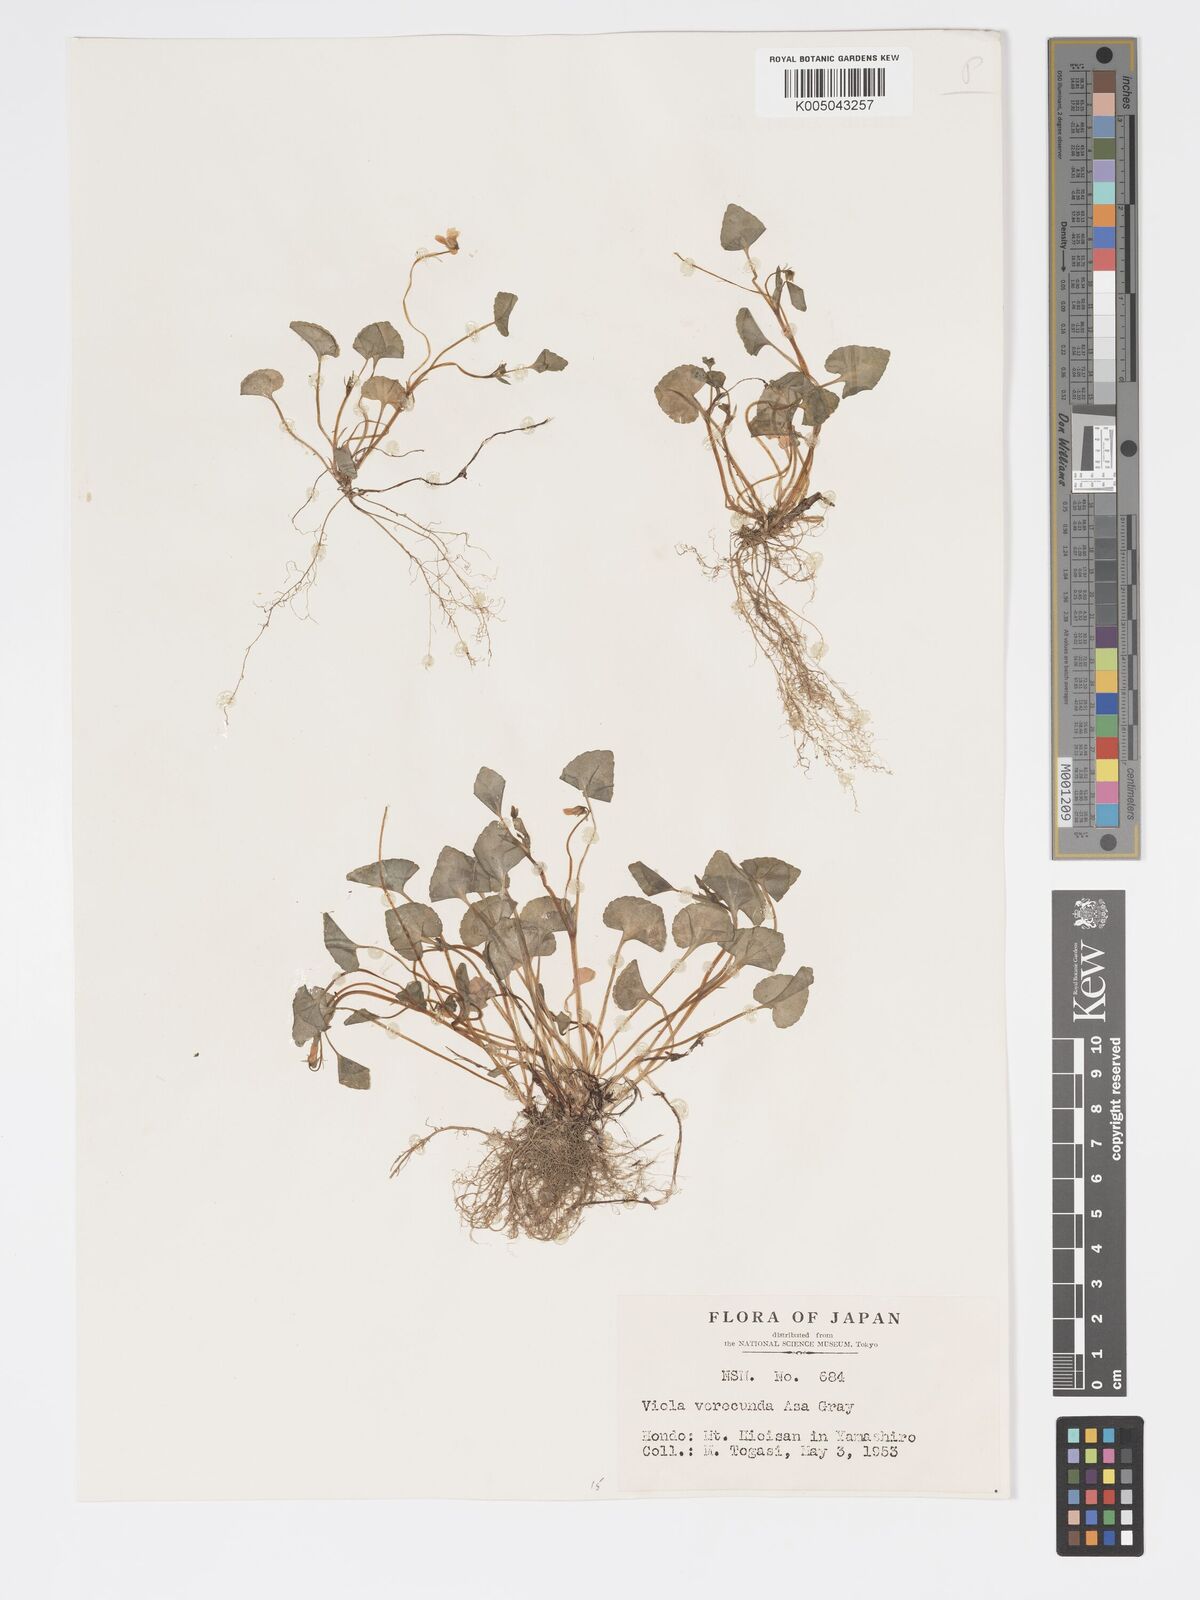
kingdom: Plantae
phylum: Tracheophyta
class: Magnoliopsida
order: Malpighiales
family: Violaceae
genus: Viola
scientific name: Viola hamiltoniana
